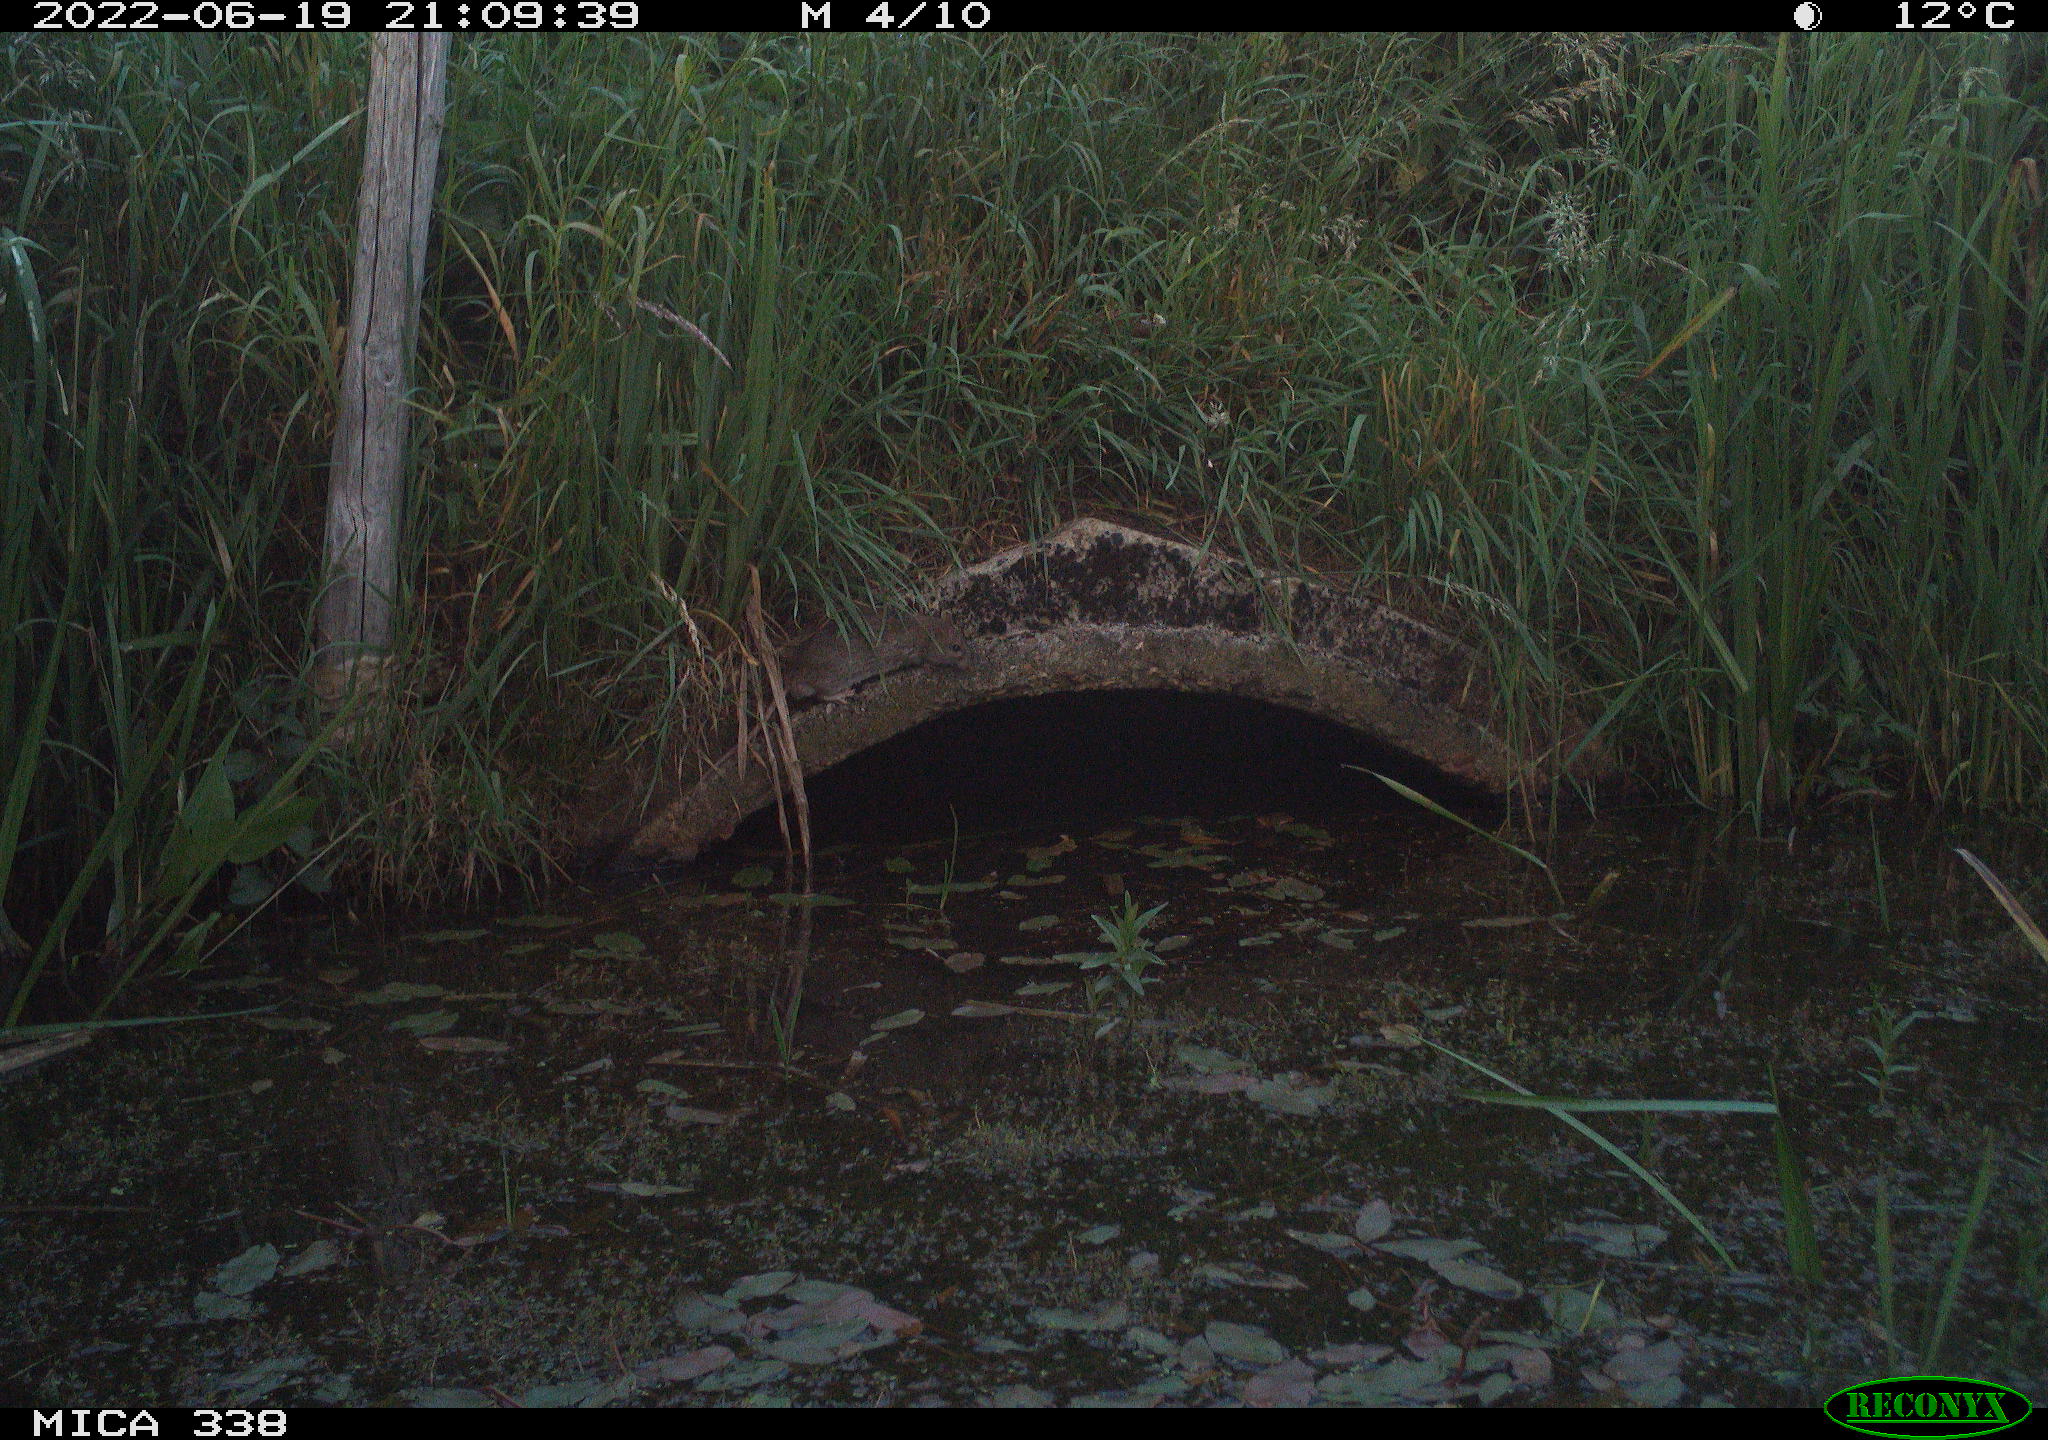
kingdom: Animalia
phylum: Chordata
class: Mammalia
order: Rodentia
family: Muridae
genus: Rattus
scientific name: Rattus norvegicus
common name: Brown rat
